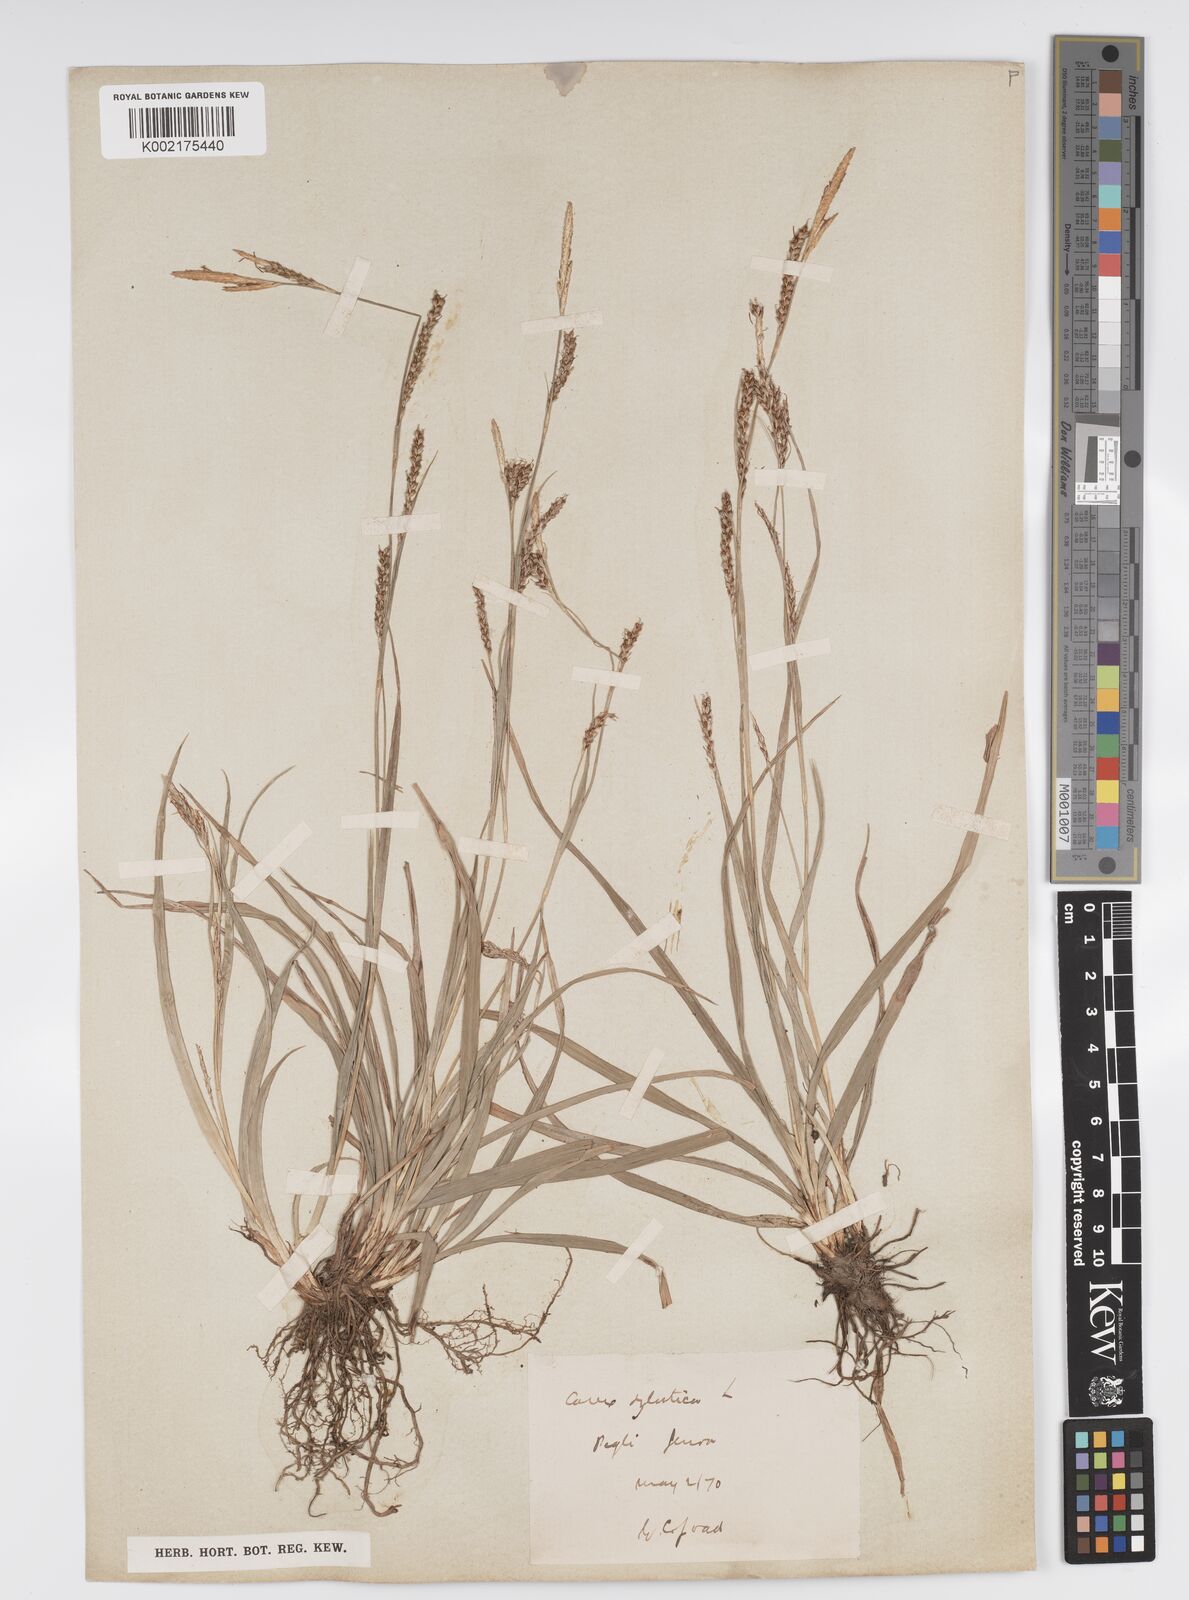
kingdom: Plantae
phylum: Tracheophyta
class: Liliopsida
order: Poales
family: Cyperaceae
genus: Carex
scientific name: Carex sylvatica
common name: Wood-sedge
